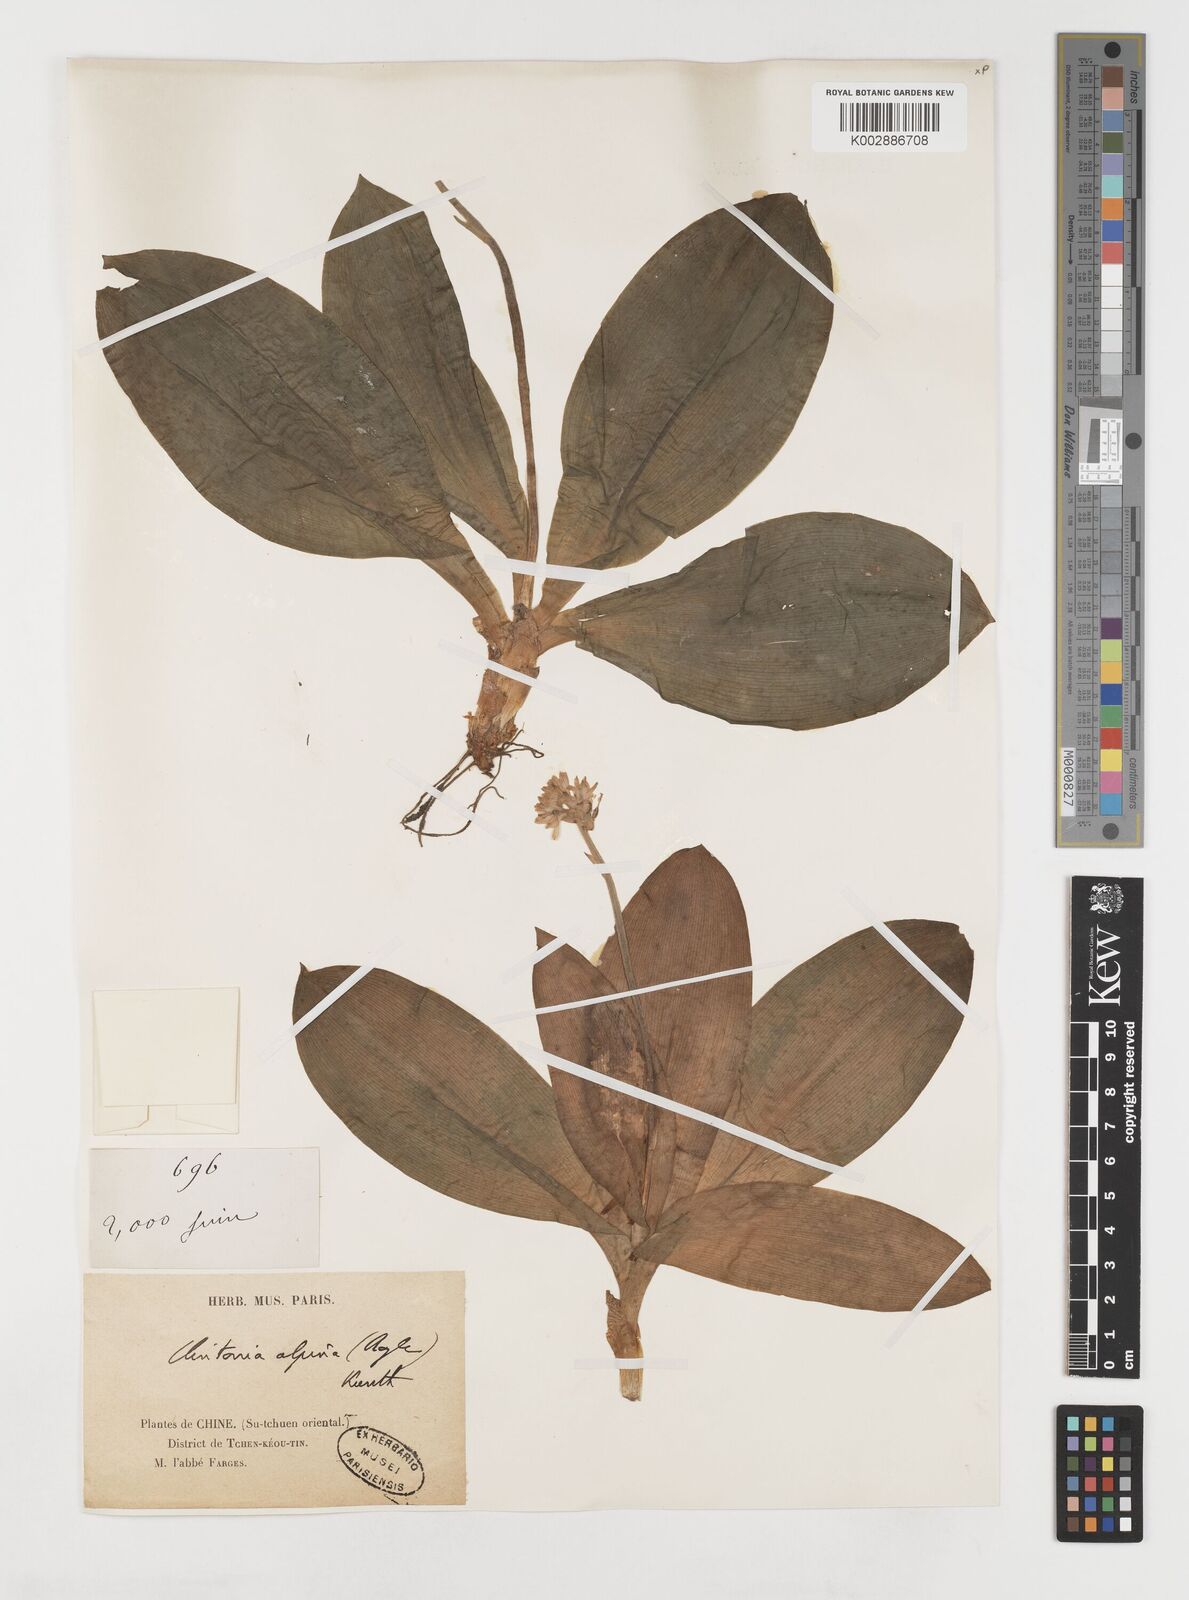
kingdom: Plantae
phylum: Tracheophyta
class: Liliopsida
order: Liliales
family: Liliaceae
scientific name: Liliaceae
